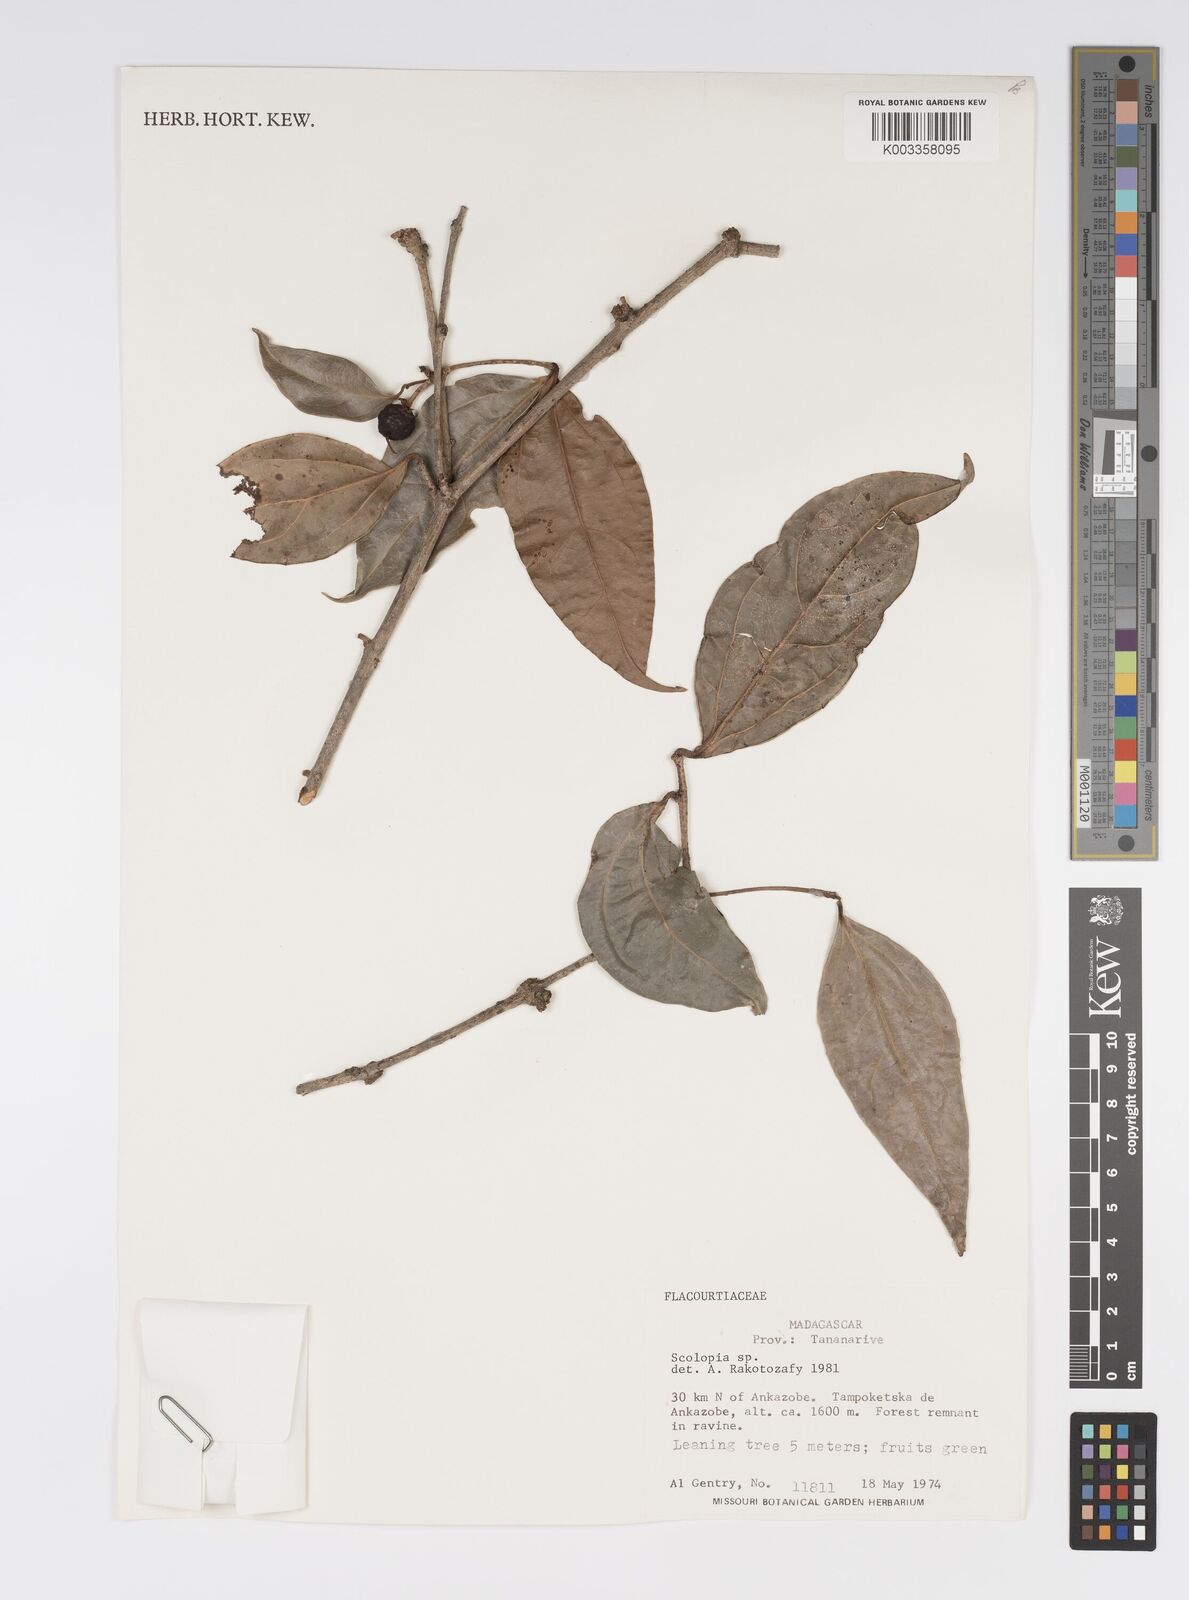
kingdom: Plantae
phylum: Tracheophyta
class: Magnoliopsida
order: Malpighiales
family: Salicaceae
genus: Scolopia
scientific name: Scolopia madagascariensis
